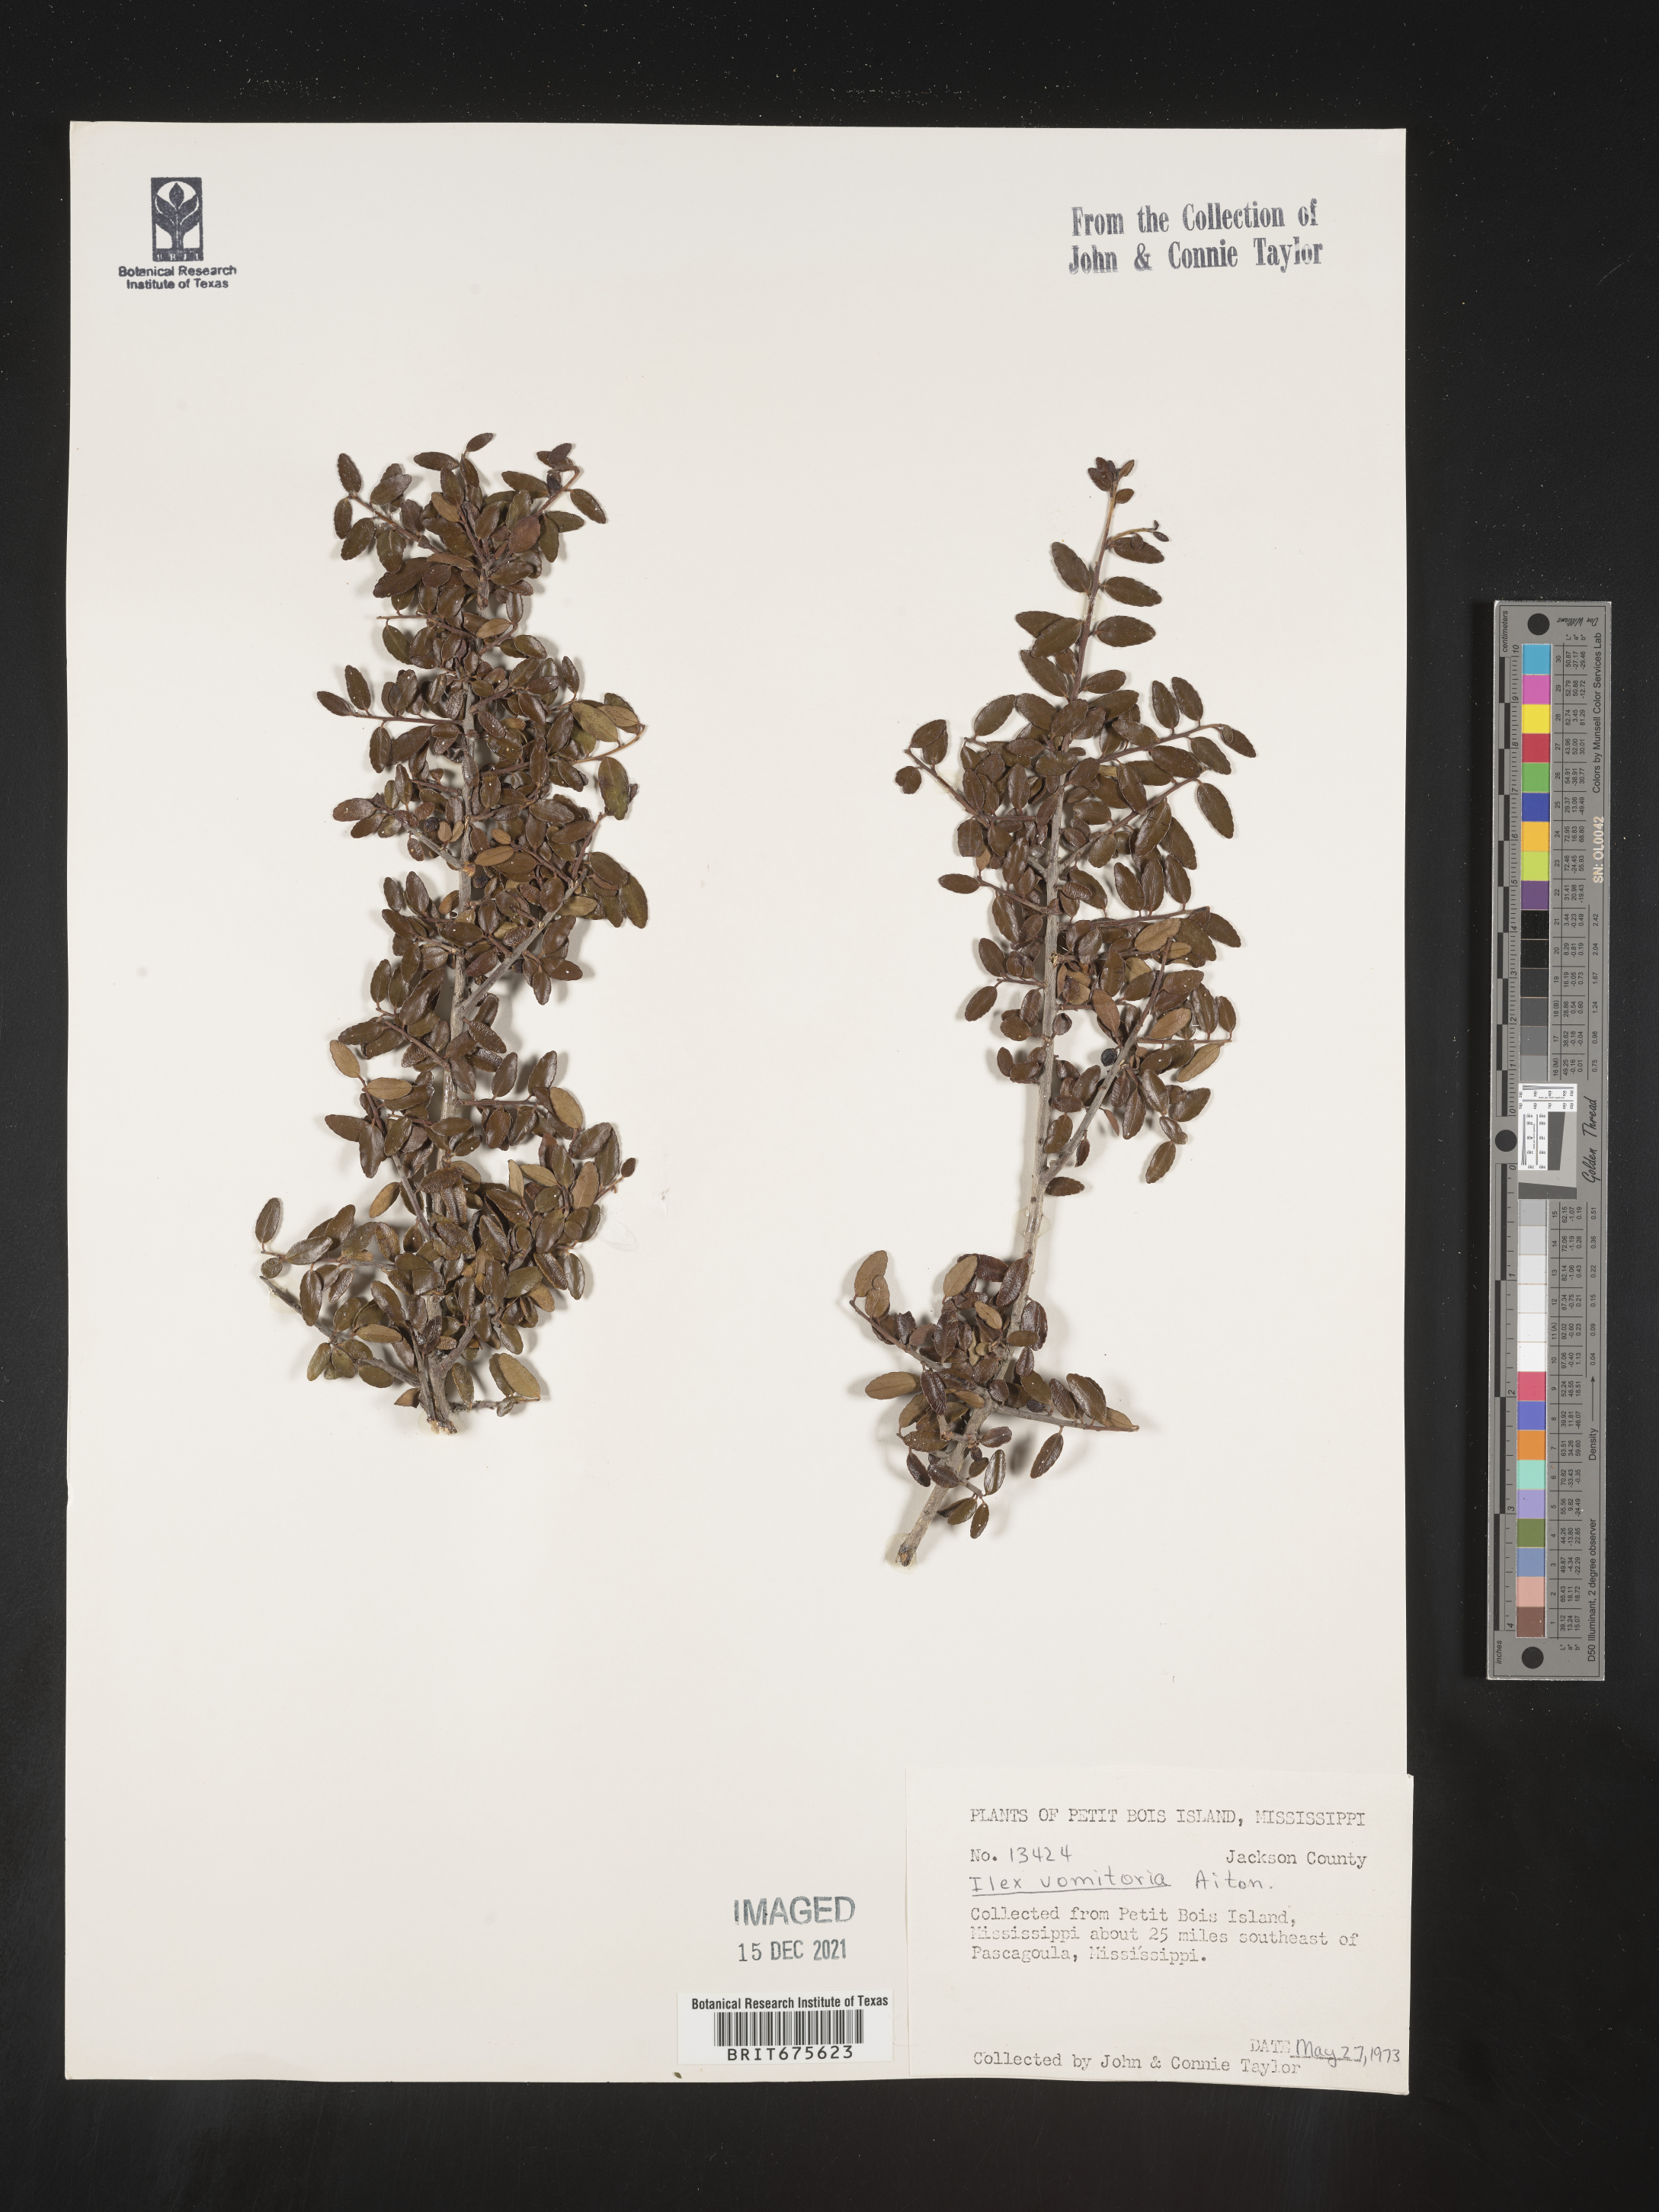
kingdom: Plantae
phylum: Tracheophyta
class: Magnoliopsida
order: Aquifoliales
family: Aquifoliaceae
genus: Ilex
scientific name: Ilex vomitoria
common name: Yaupon holly
